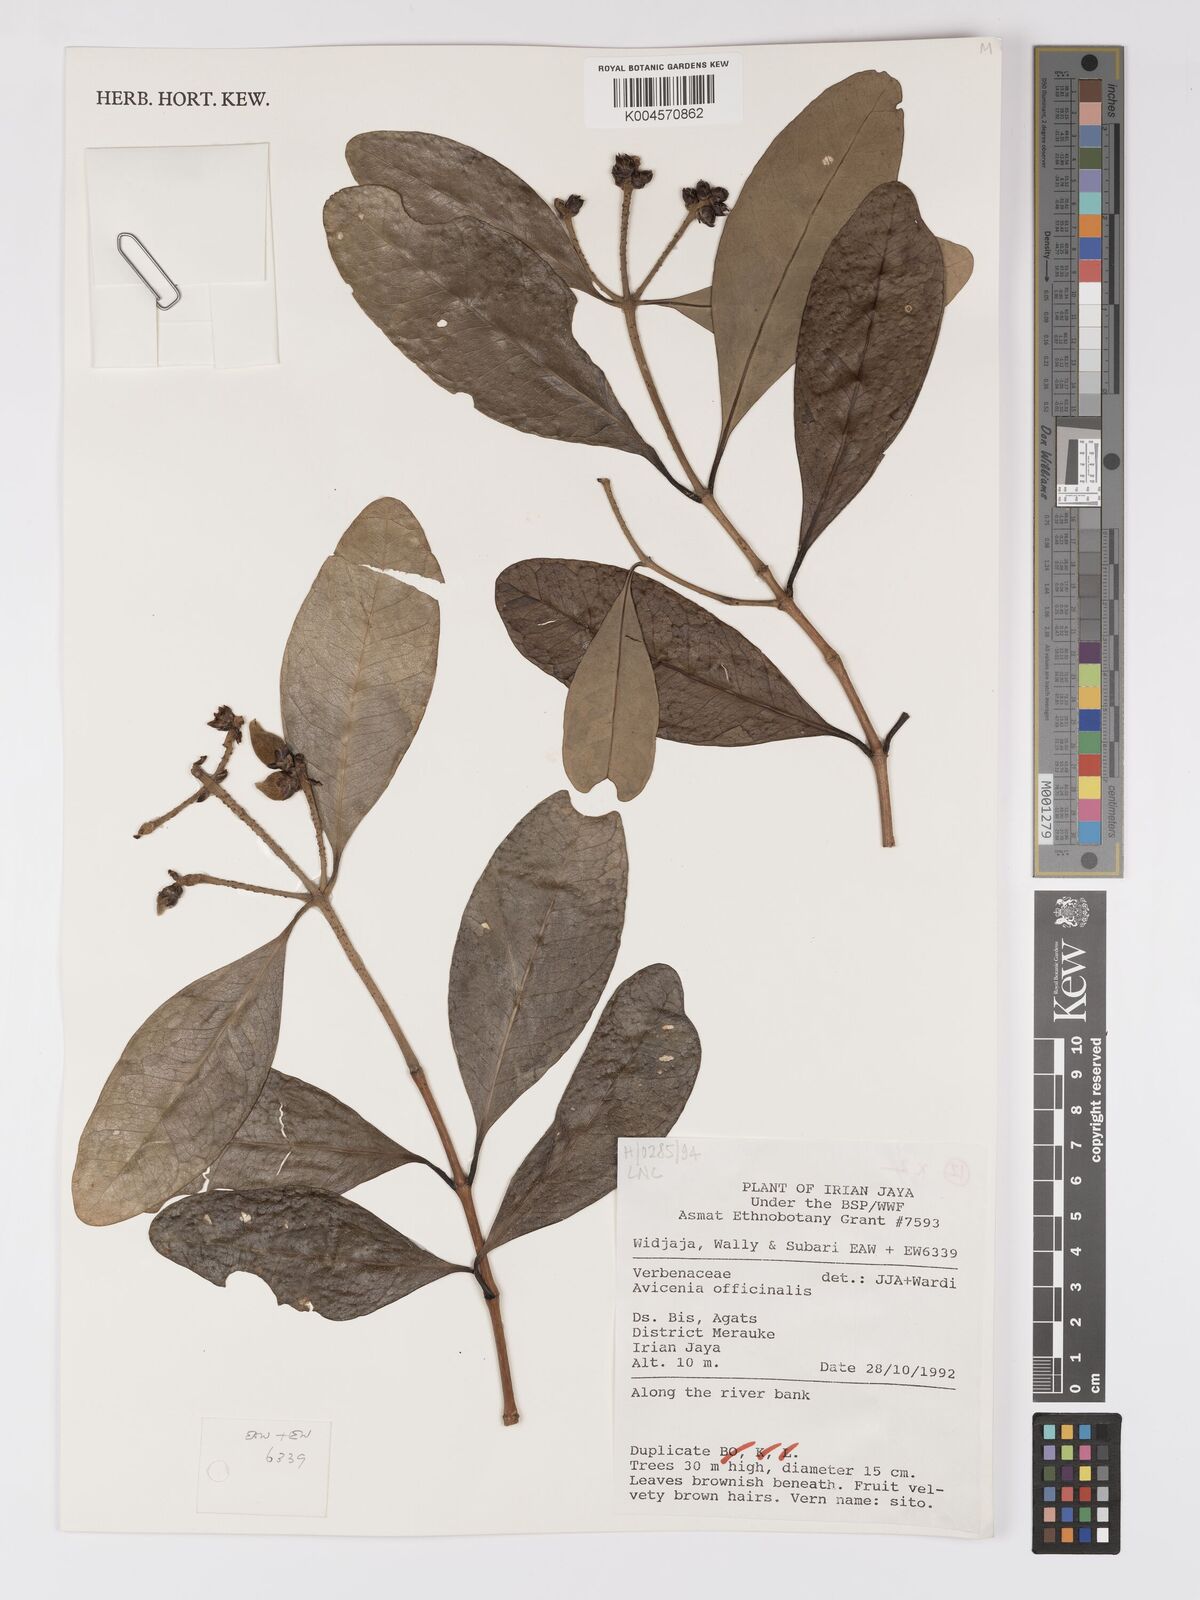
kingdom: Plantae
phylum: Tracheophyta
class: Magnoliopsida
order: Lamiales
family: Acanthaceae
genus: Avicennia
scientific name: Avicennia officinalis
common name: Baen
